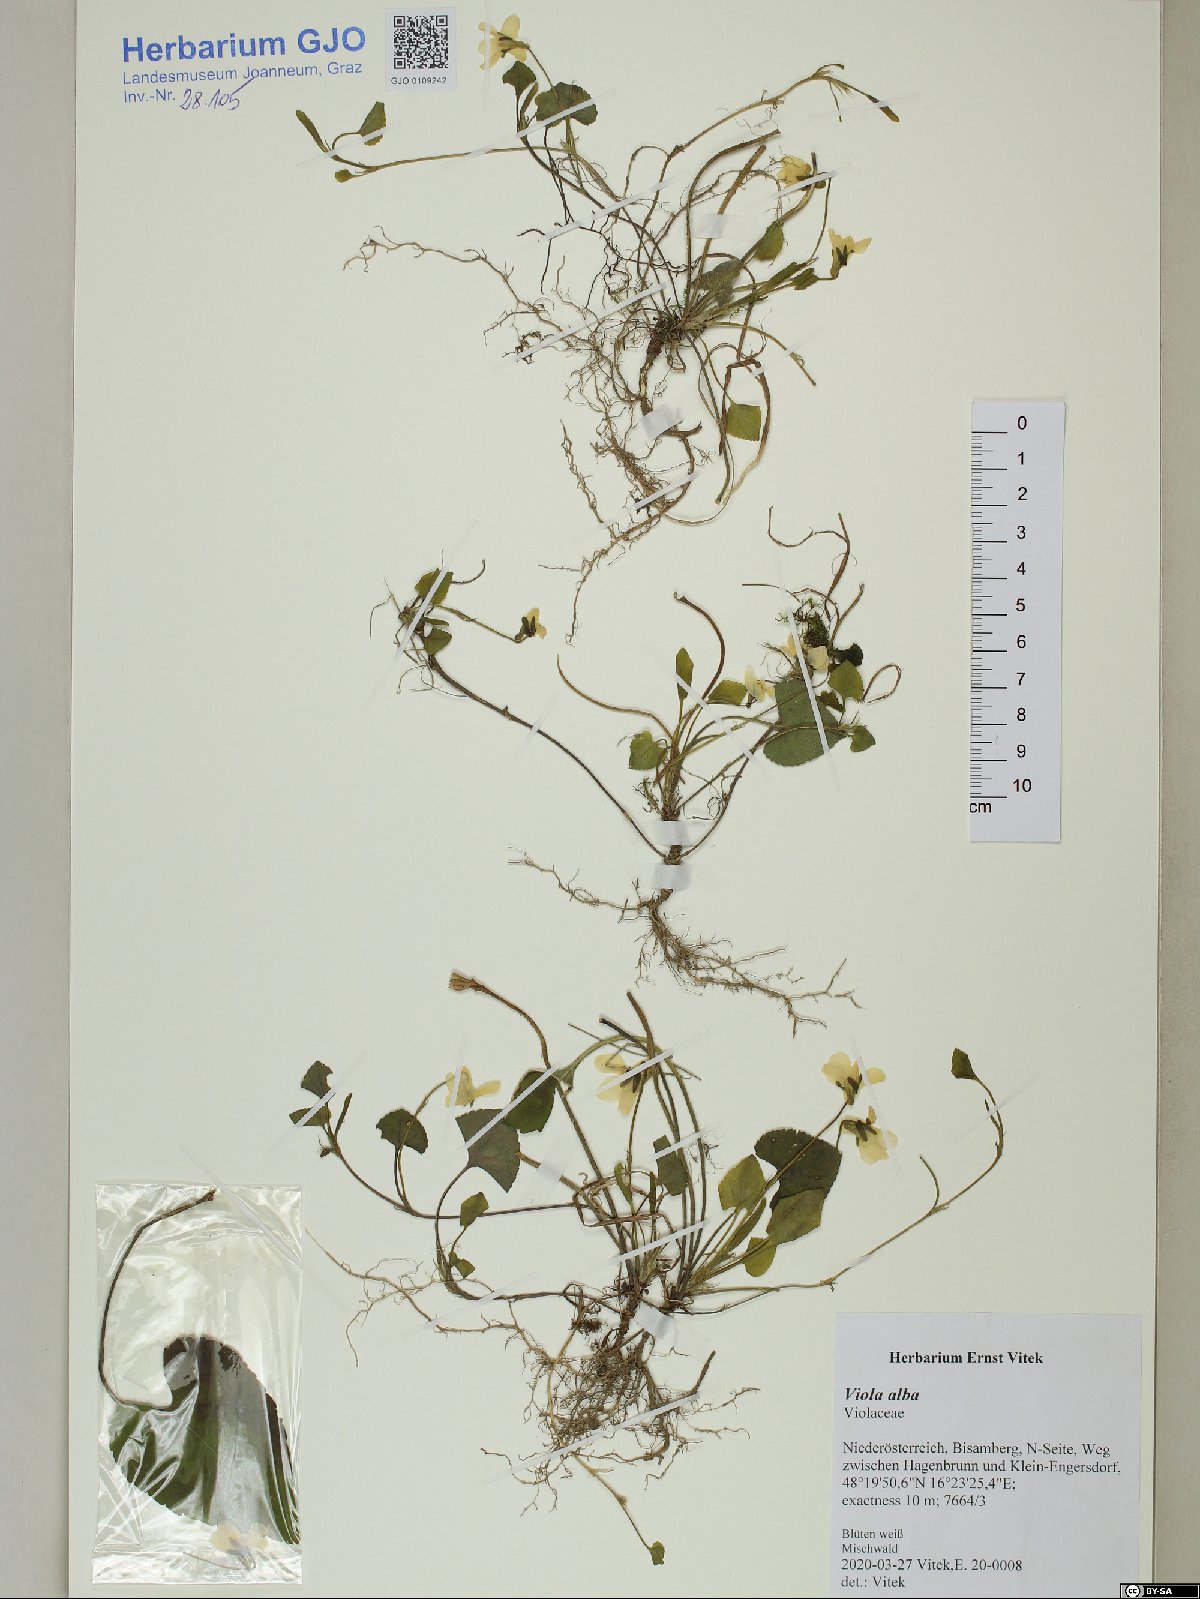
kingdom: Plantae
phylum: Tracheophyta
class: Magnoliopsida
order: Malpighiales
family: Violaceae
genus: Viola
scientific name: Viola alba
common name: White violet
